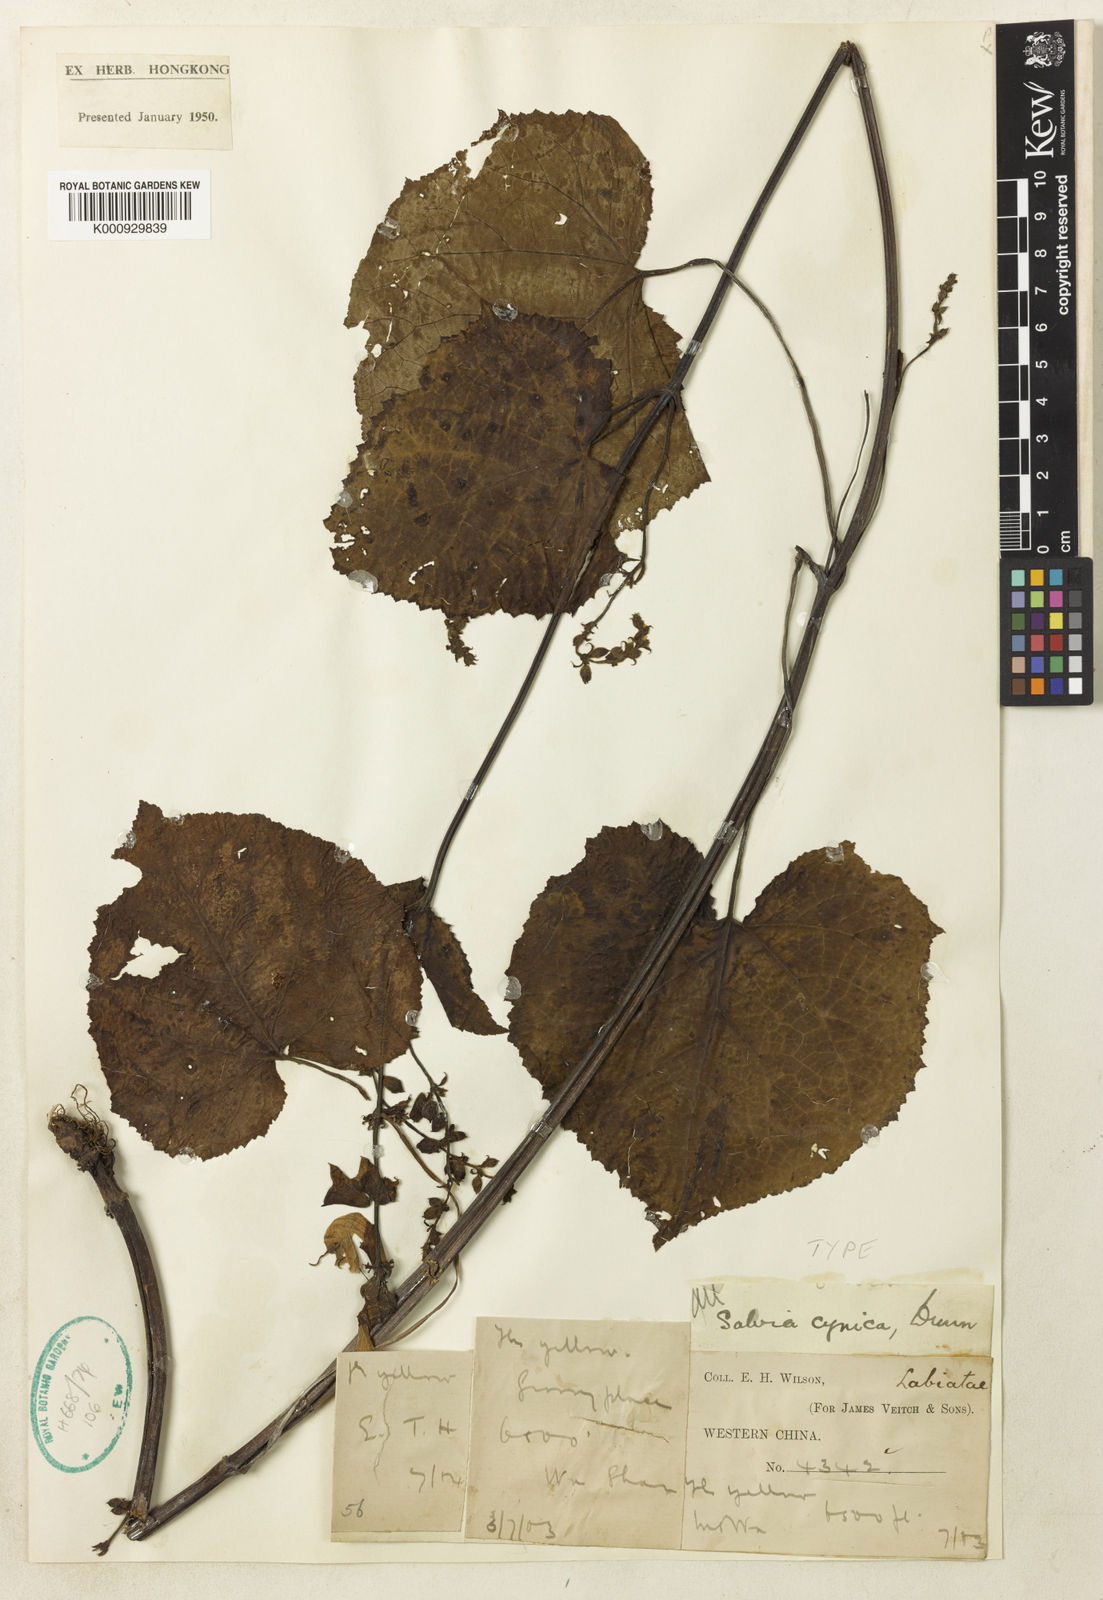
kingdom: Plantae
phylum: Tracheophyta
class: Magnoliopsida
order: Lamiales
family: Lamiaceae
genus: Salvia
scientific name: Salvia cynica
